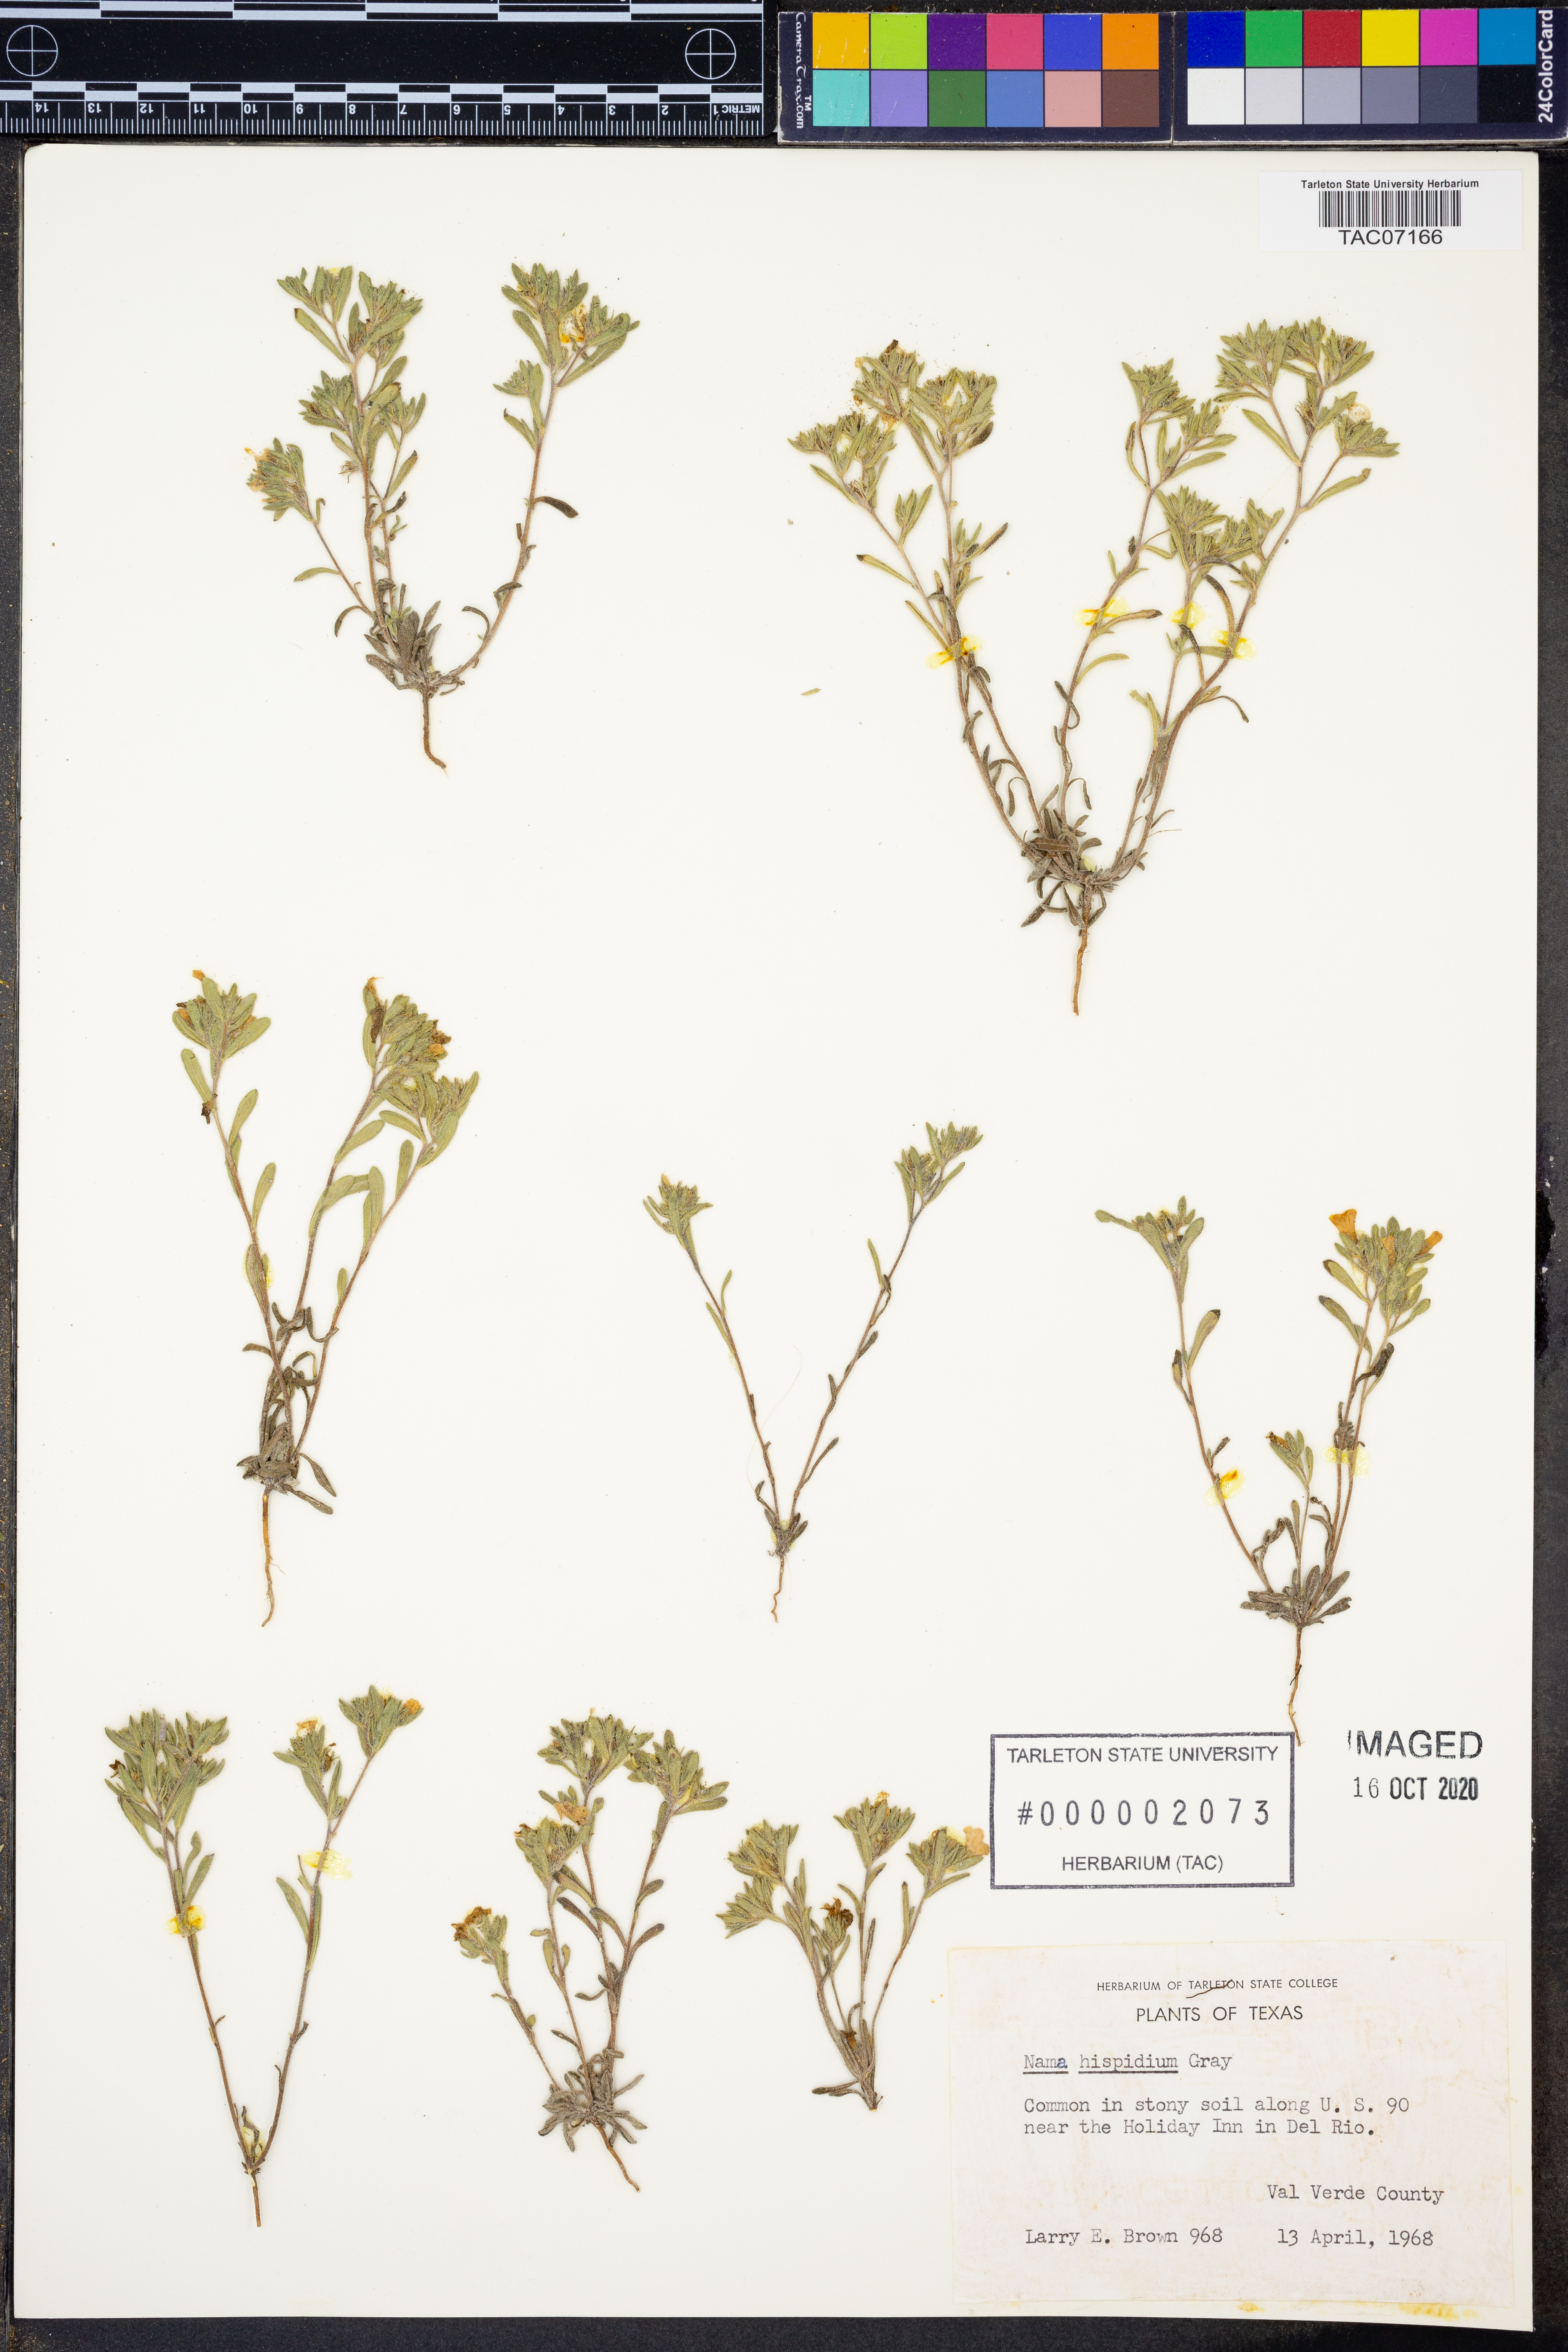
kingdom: Plantae
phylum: Tracheophyta
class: Magnoliopsida
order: Boraginales
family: Namaceae
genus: Nama
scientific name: Nama hispida
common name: Bristly nama
